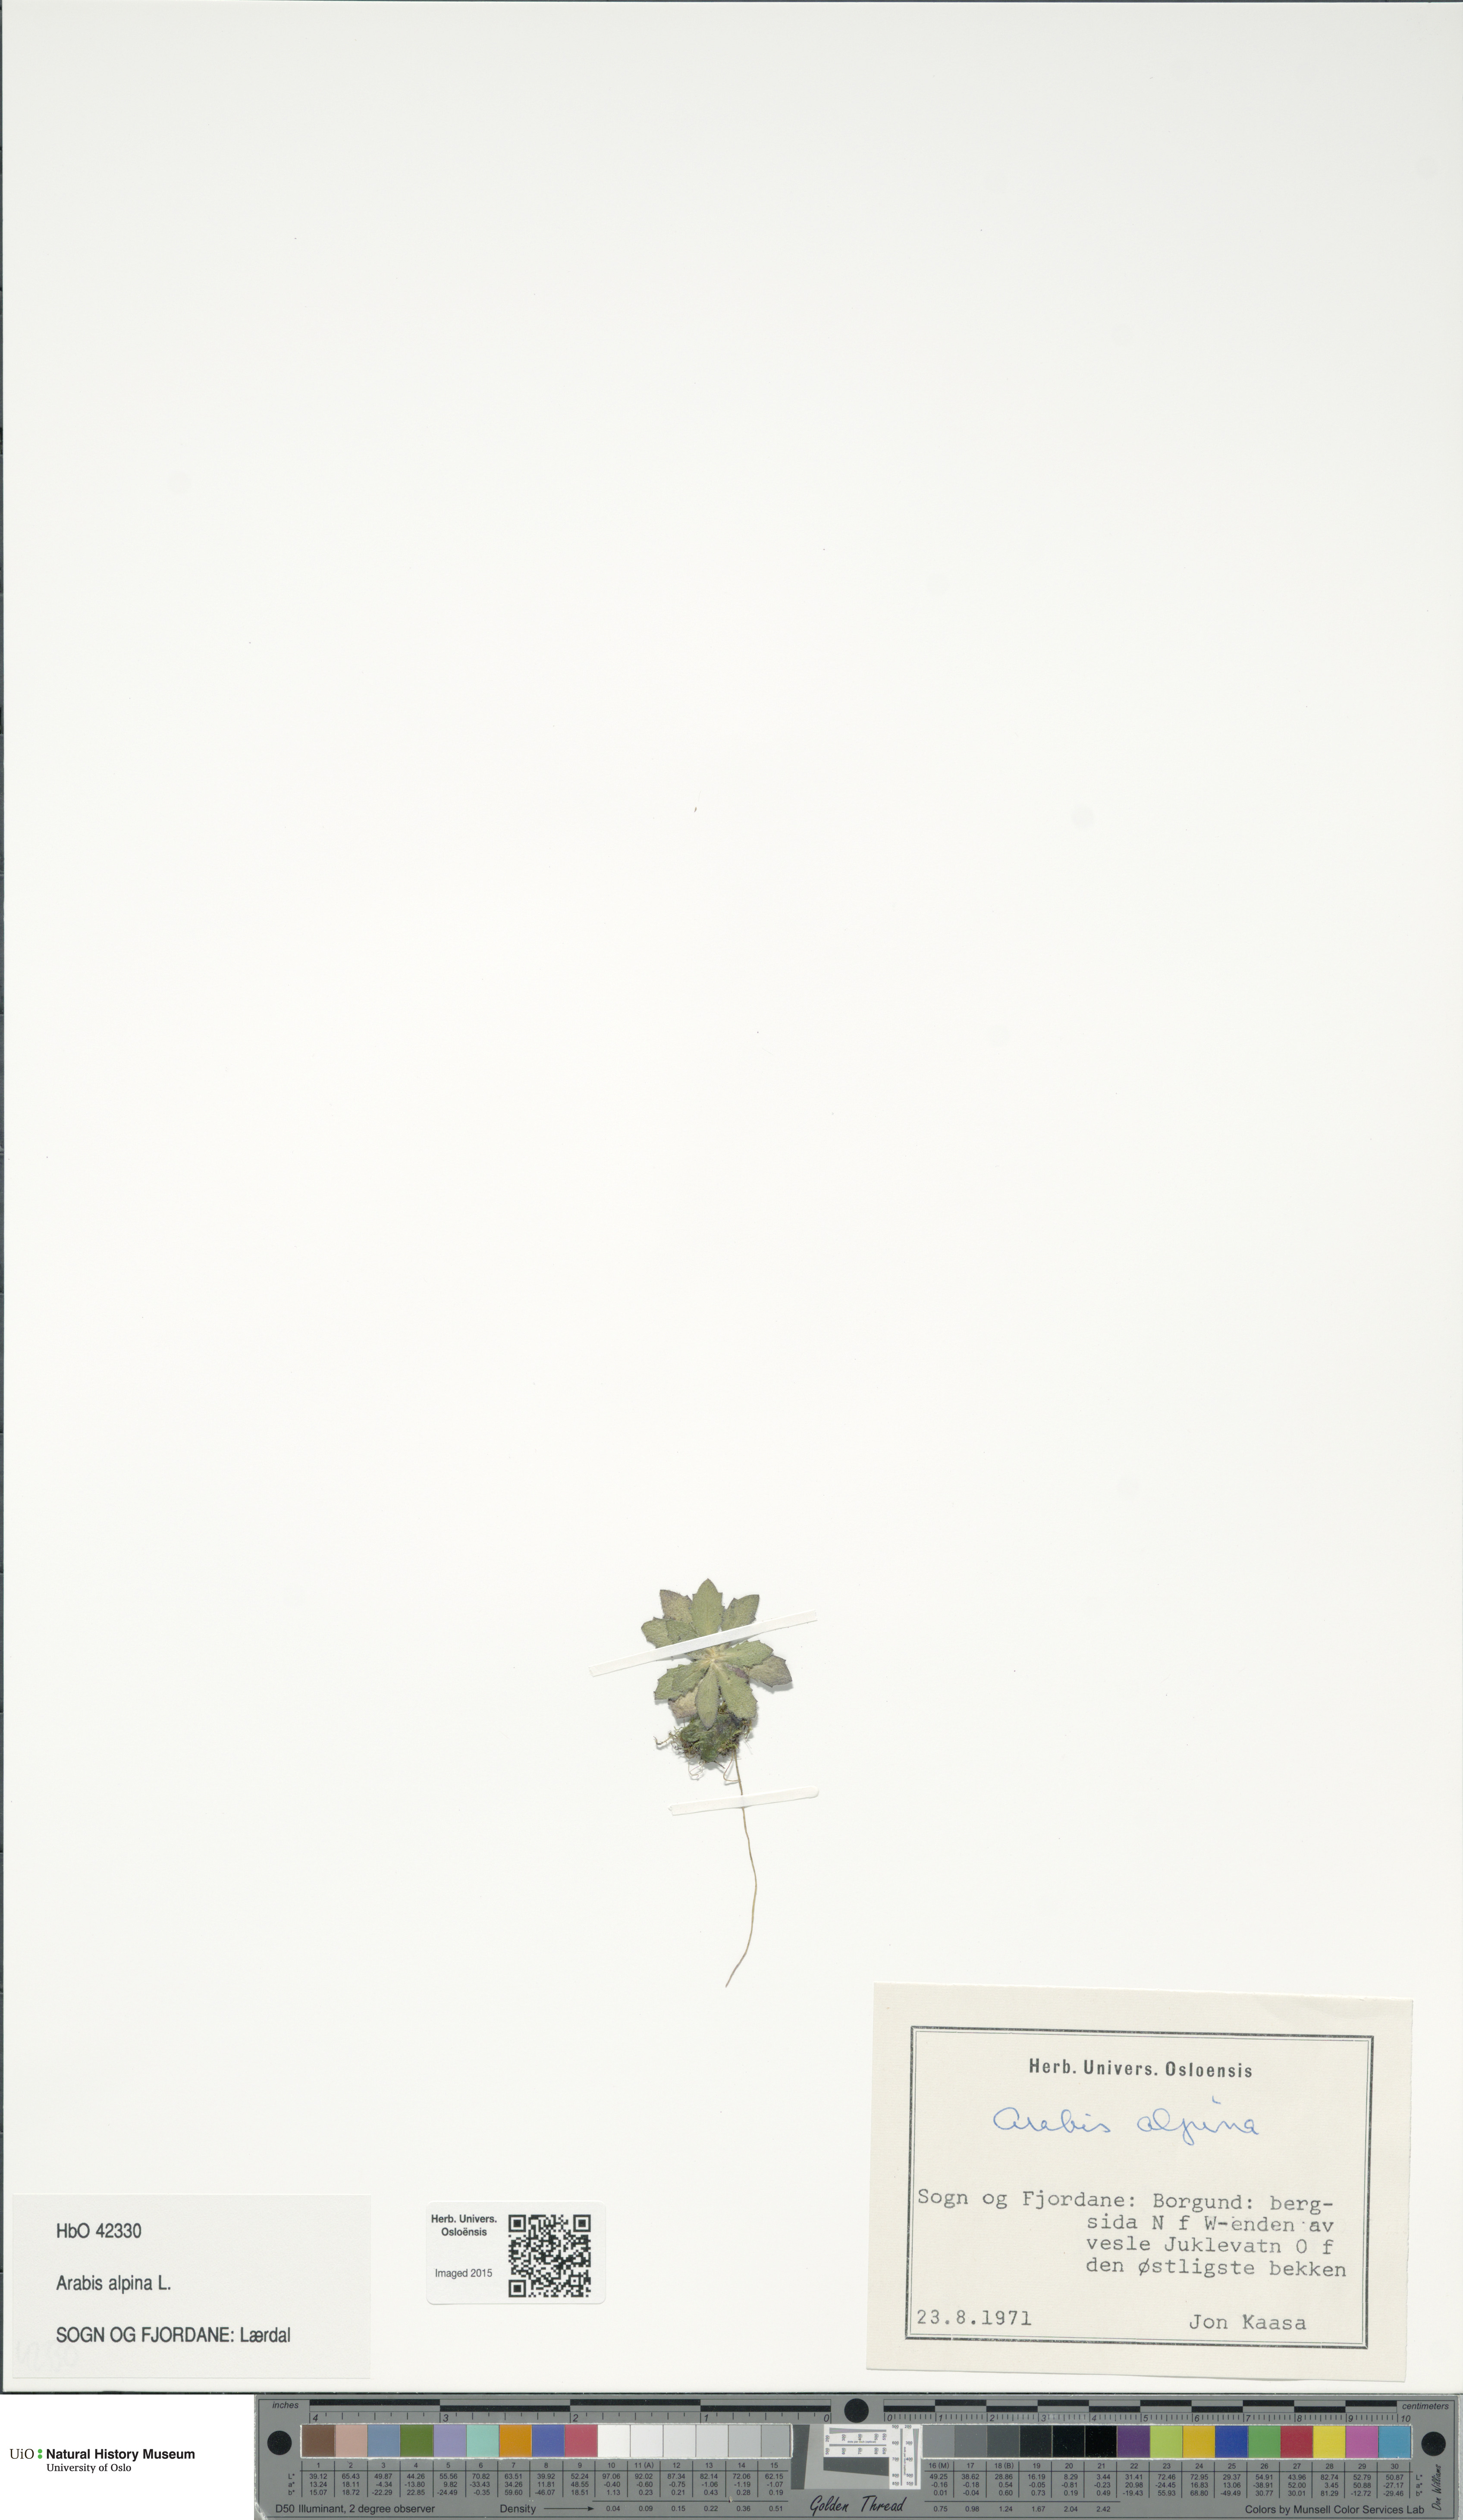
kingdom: Plantae
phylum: Tracheophyta
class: Magnoliopsida
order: Brassicales
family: Brassicaceae
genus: Arabis
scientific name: Arabis alpina
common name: Alpine rock-cress
